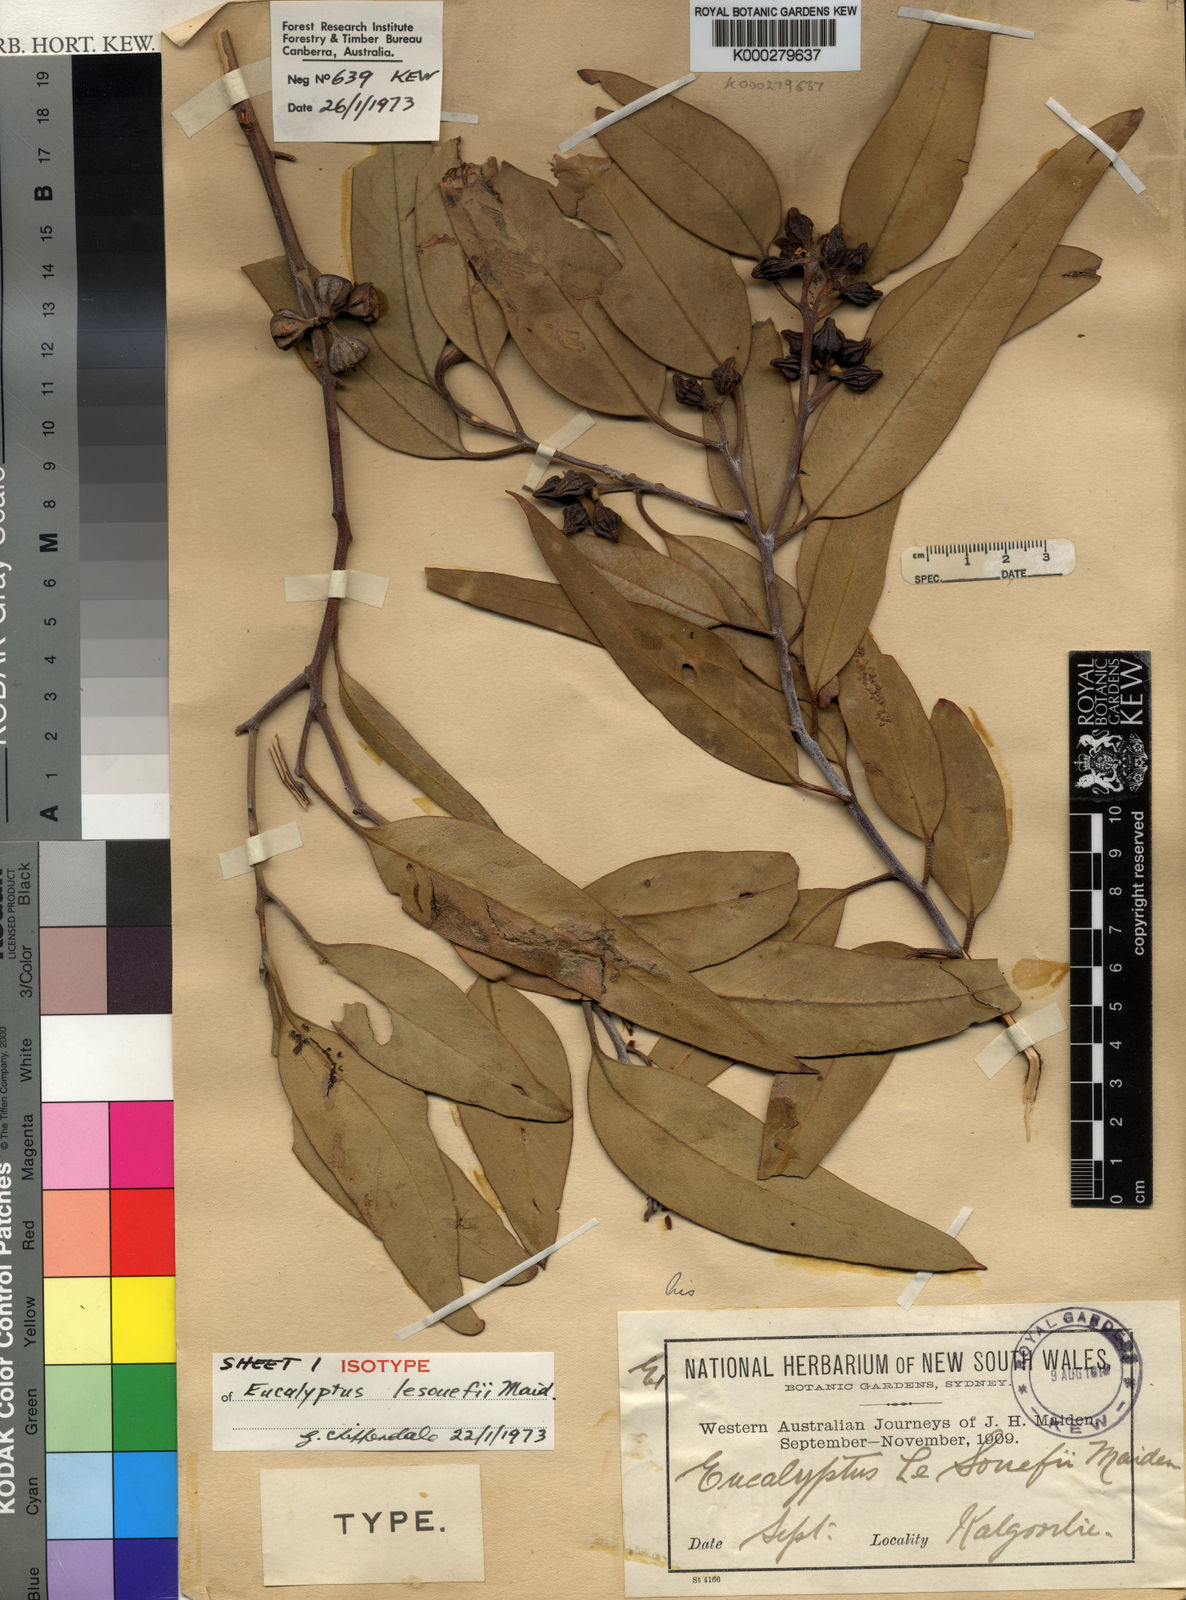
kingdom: Plantae
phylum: Tracheophyta
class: Magnoliopsida
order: Myrtales
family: Myrtaceae
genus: Eucalyptus
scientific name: Eucalyptus lesouefii
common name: Goldfields blackbutt
